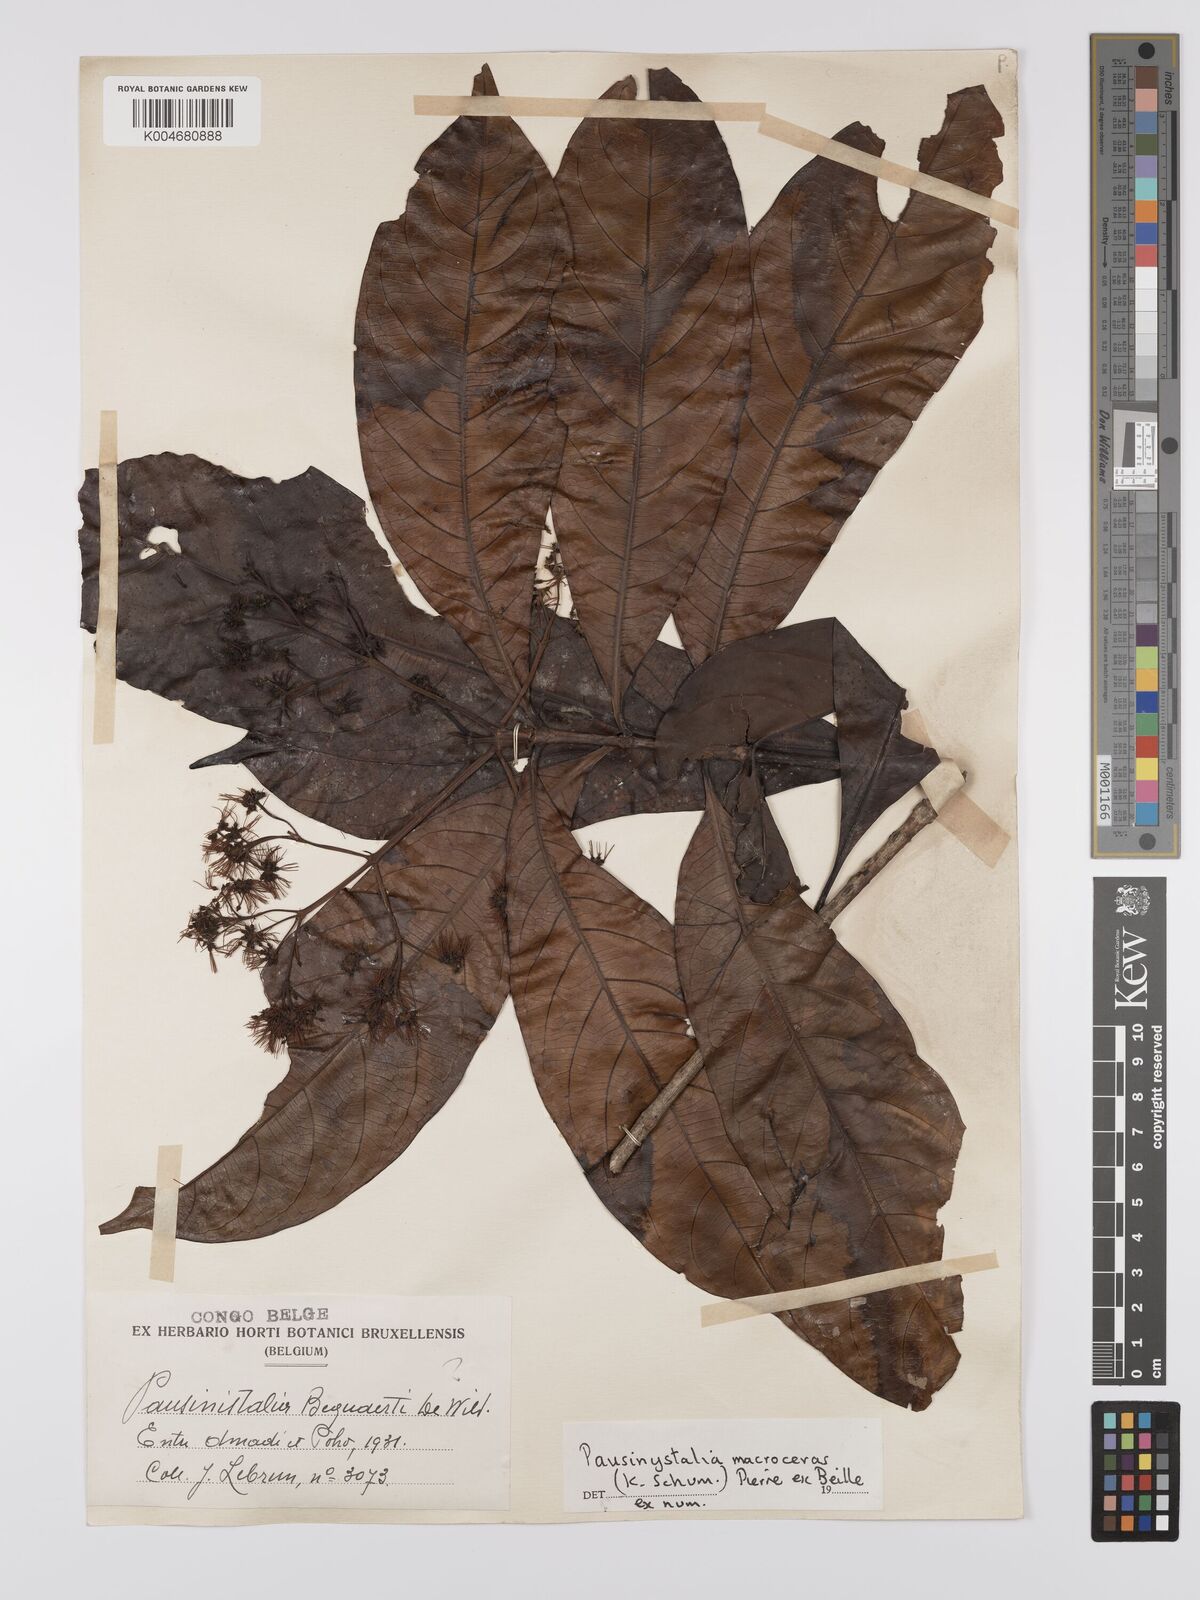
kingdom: Plantae
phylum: Tracheophyta
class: Magnoliopsida
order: Gentianales
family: Rubiaceae
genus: Corynanthe
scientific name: Corynanthe macroceras
